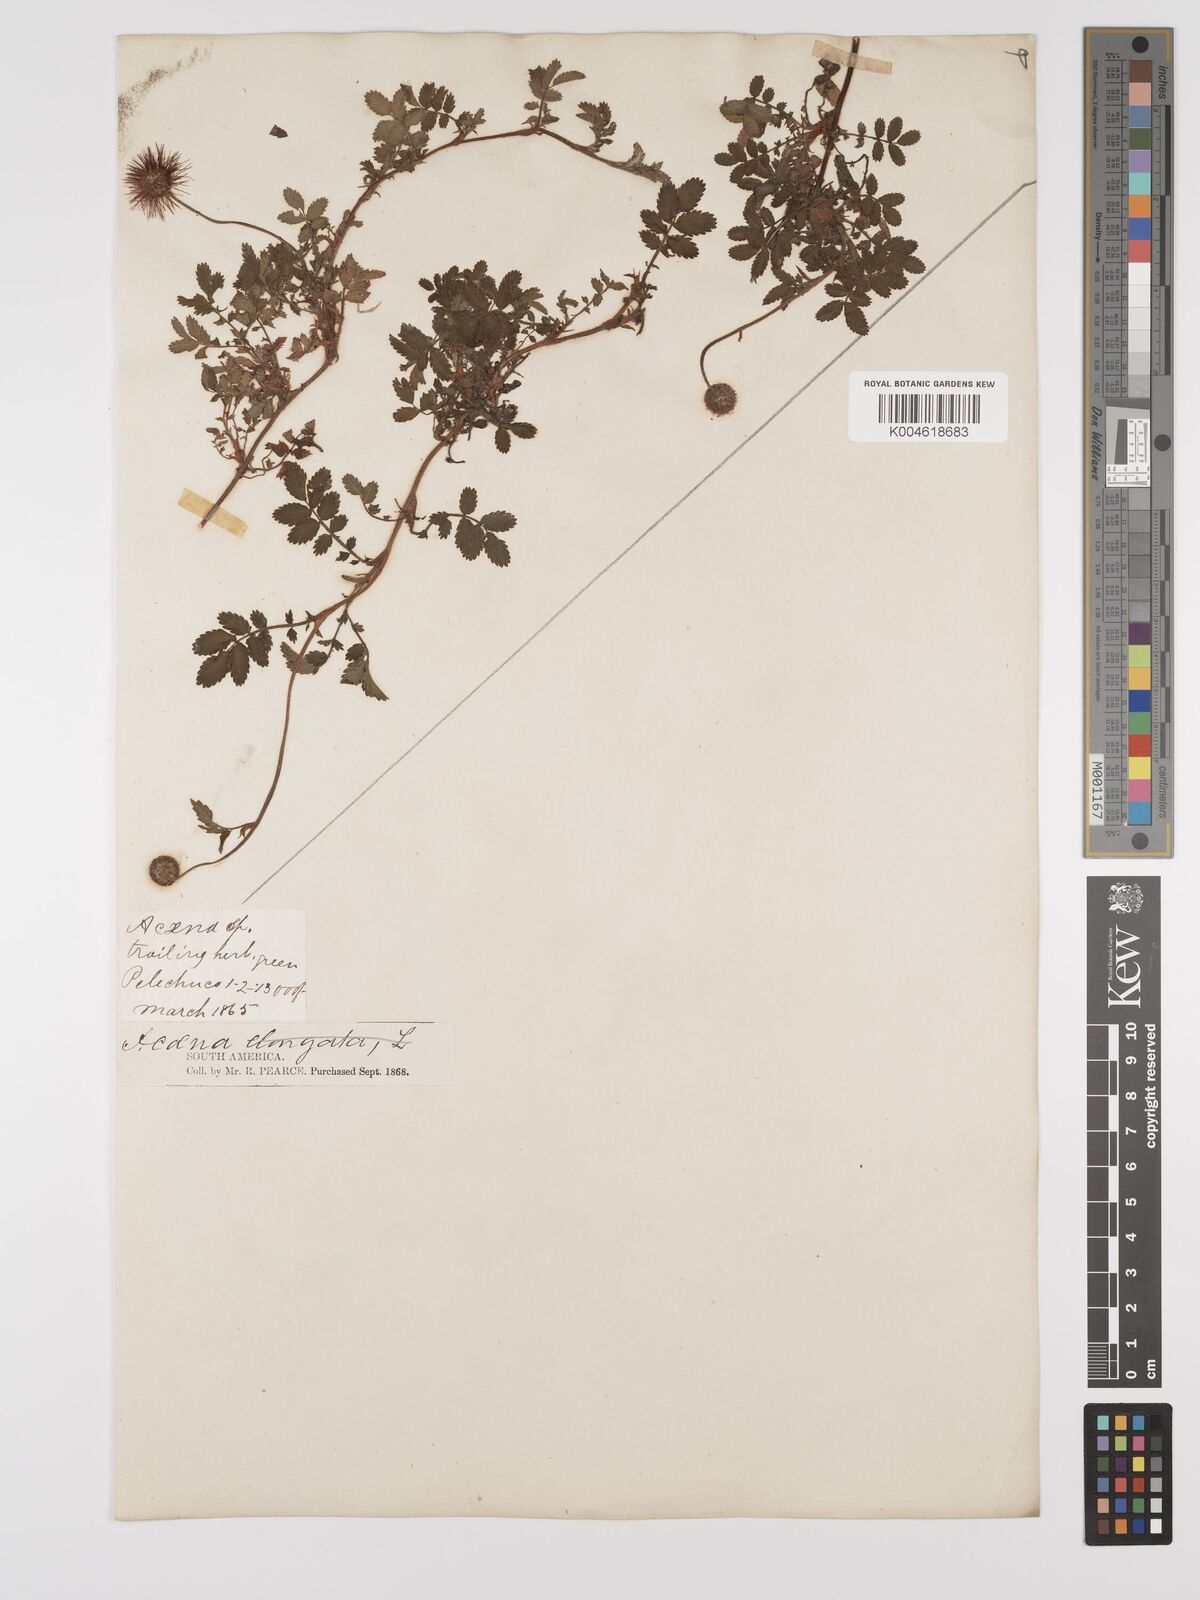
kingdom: Plantae
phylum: Tracheophyta
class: Magnoliopsida
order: Rosales
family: Rosaceae
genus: Acaena
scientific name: Acaena ovalifolia
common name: Two-spined acaena
